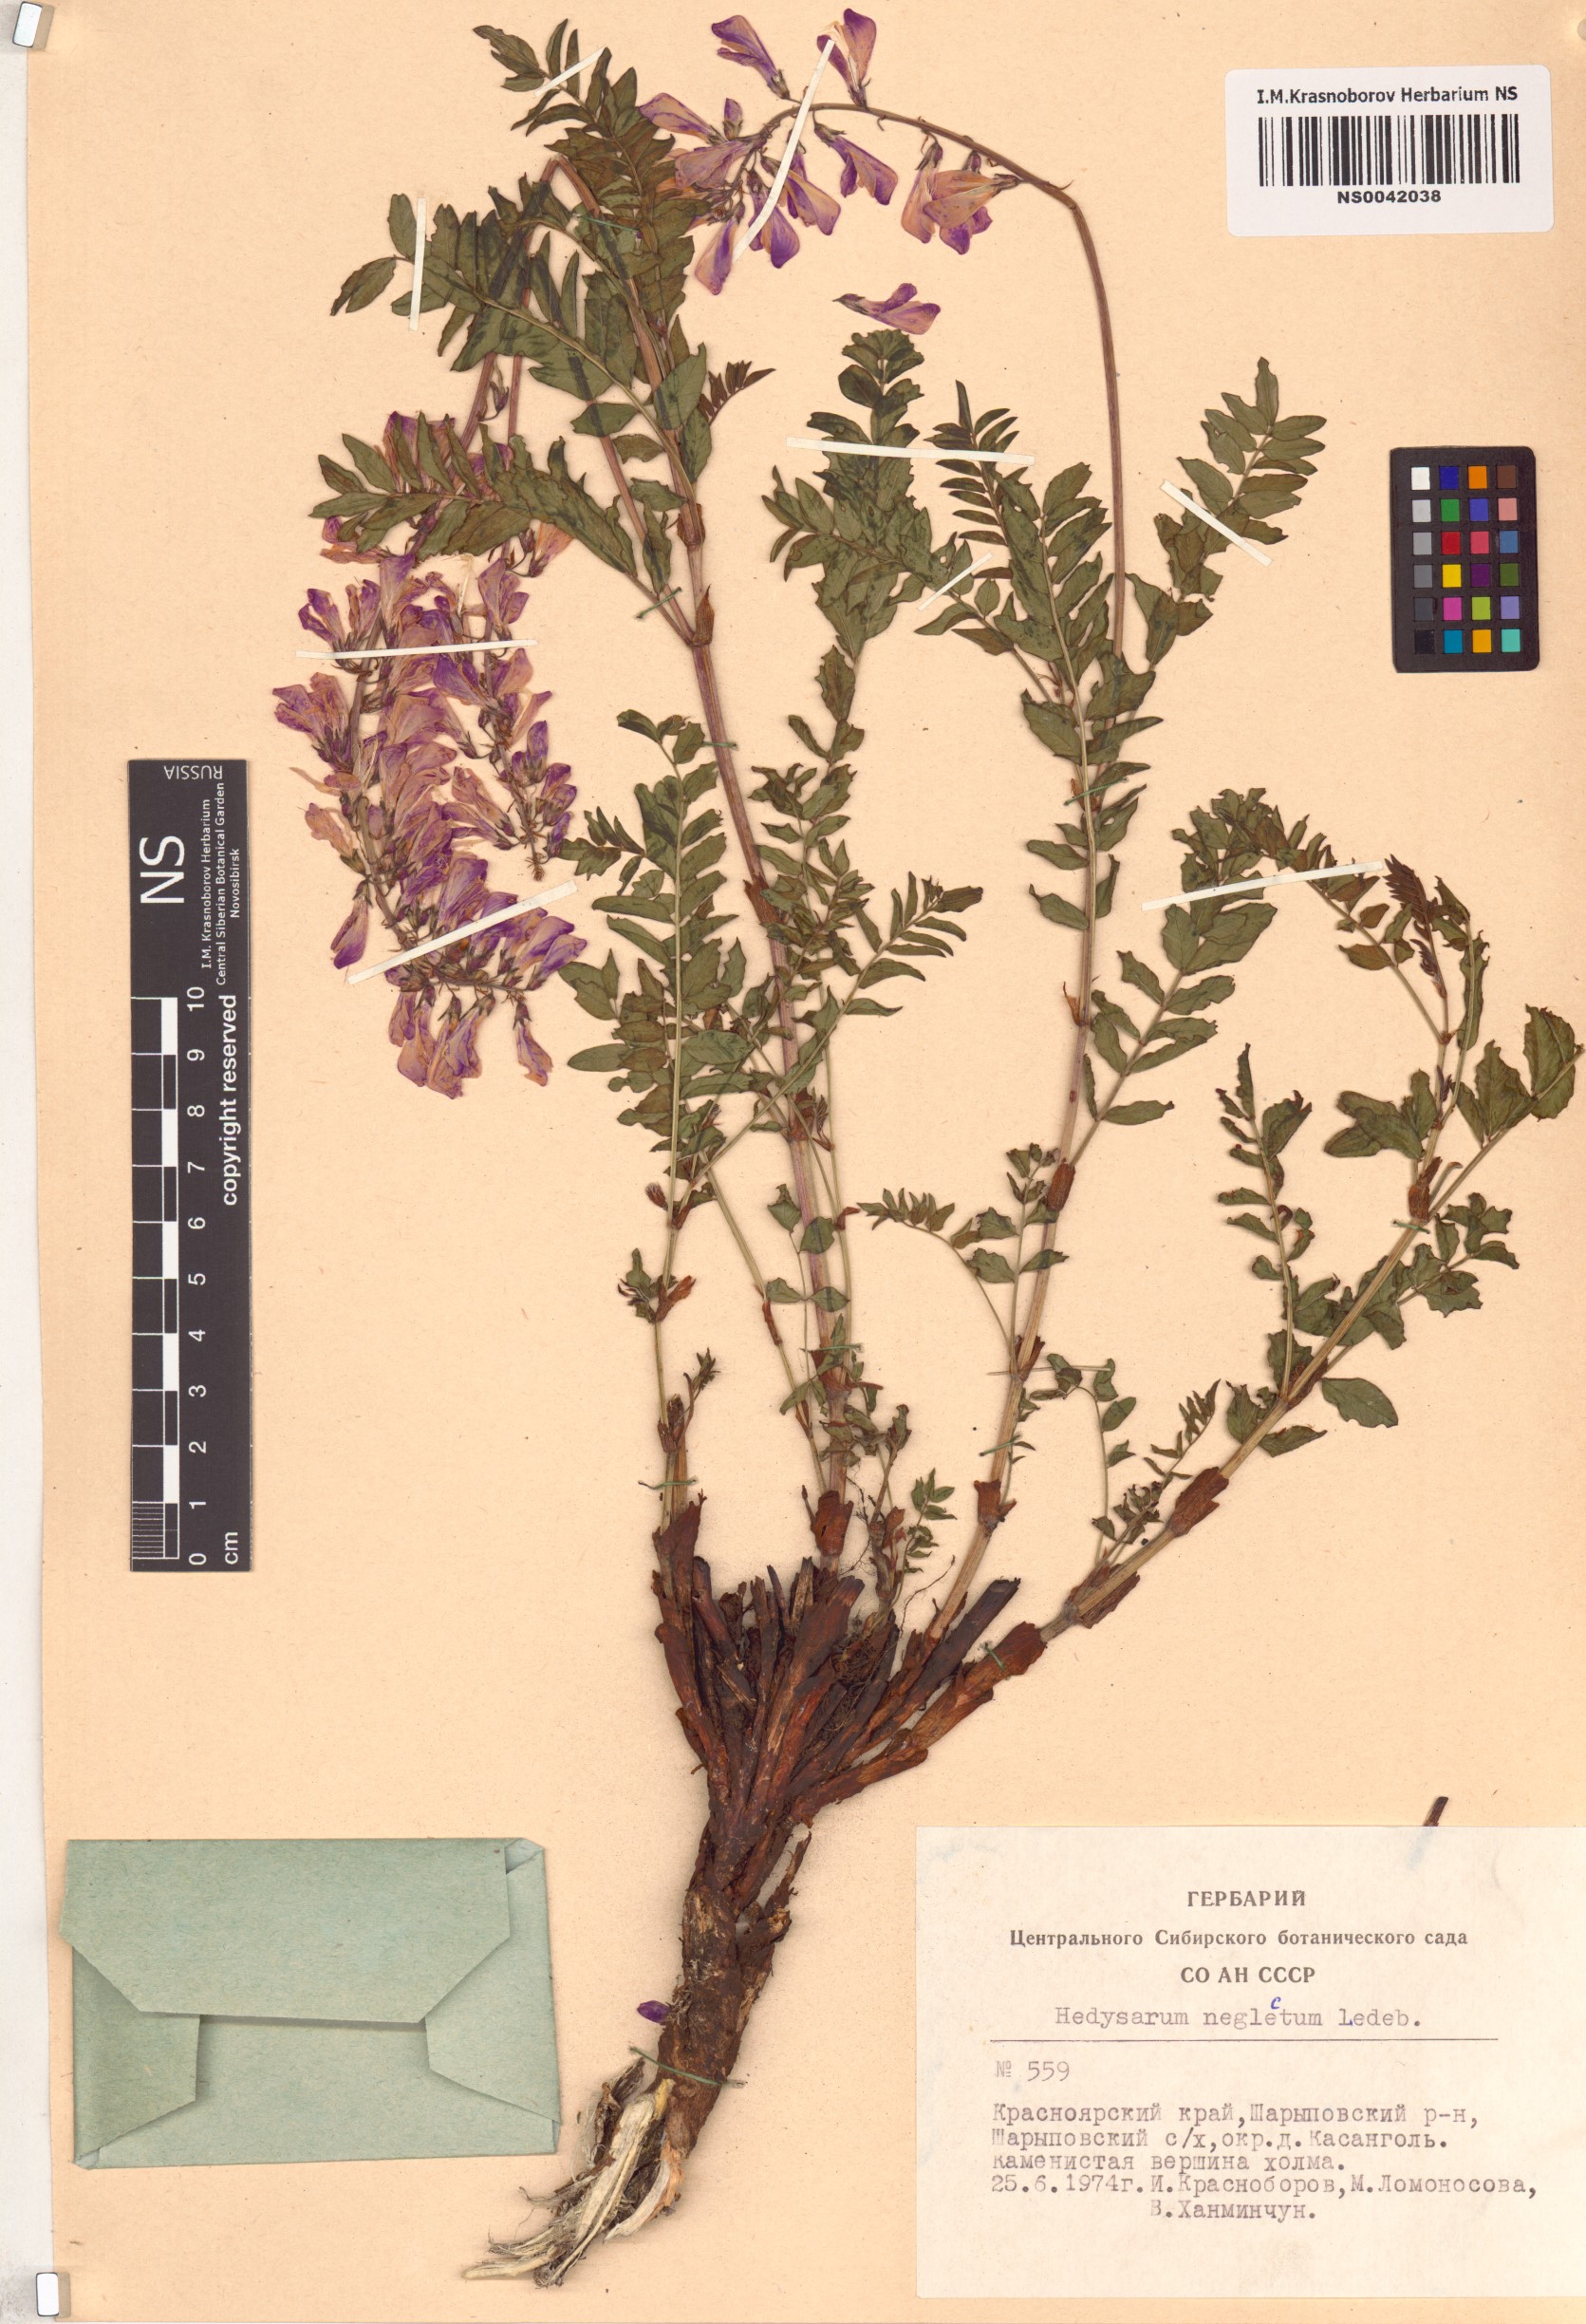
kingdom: Plantae
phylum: Tracheophyta
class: Magnoliopsida
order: Fabales
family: Fabaceae
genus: Hedysarum
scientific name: Hedysarum neglectum
